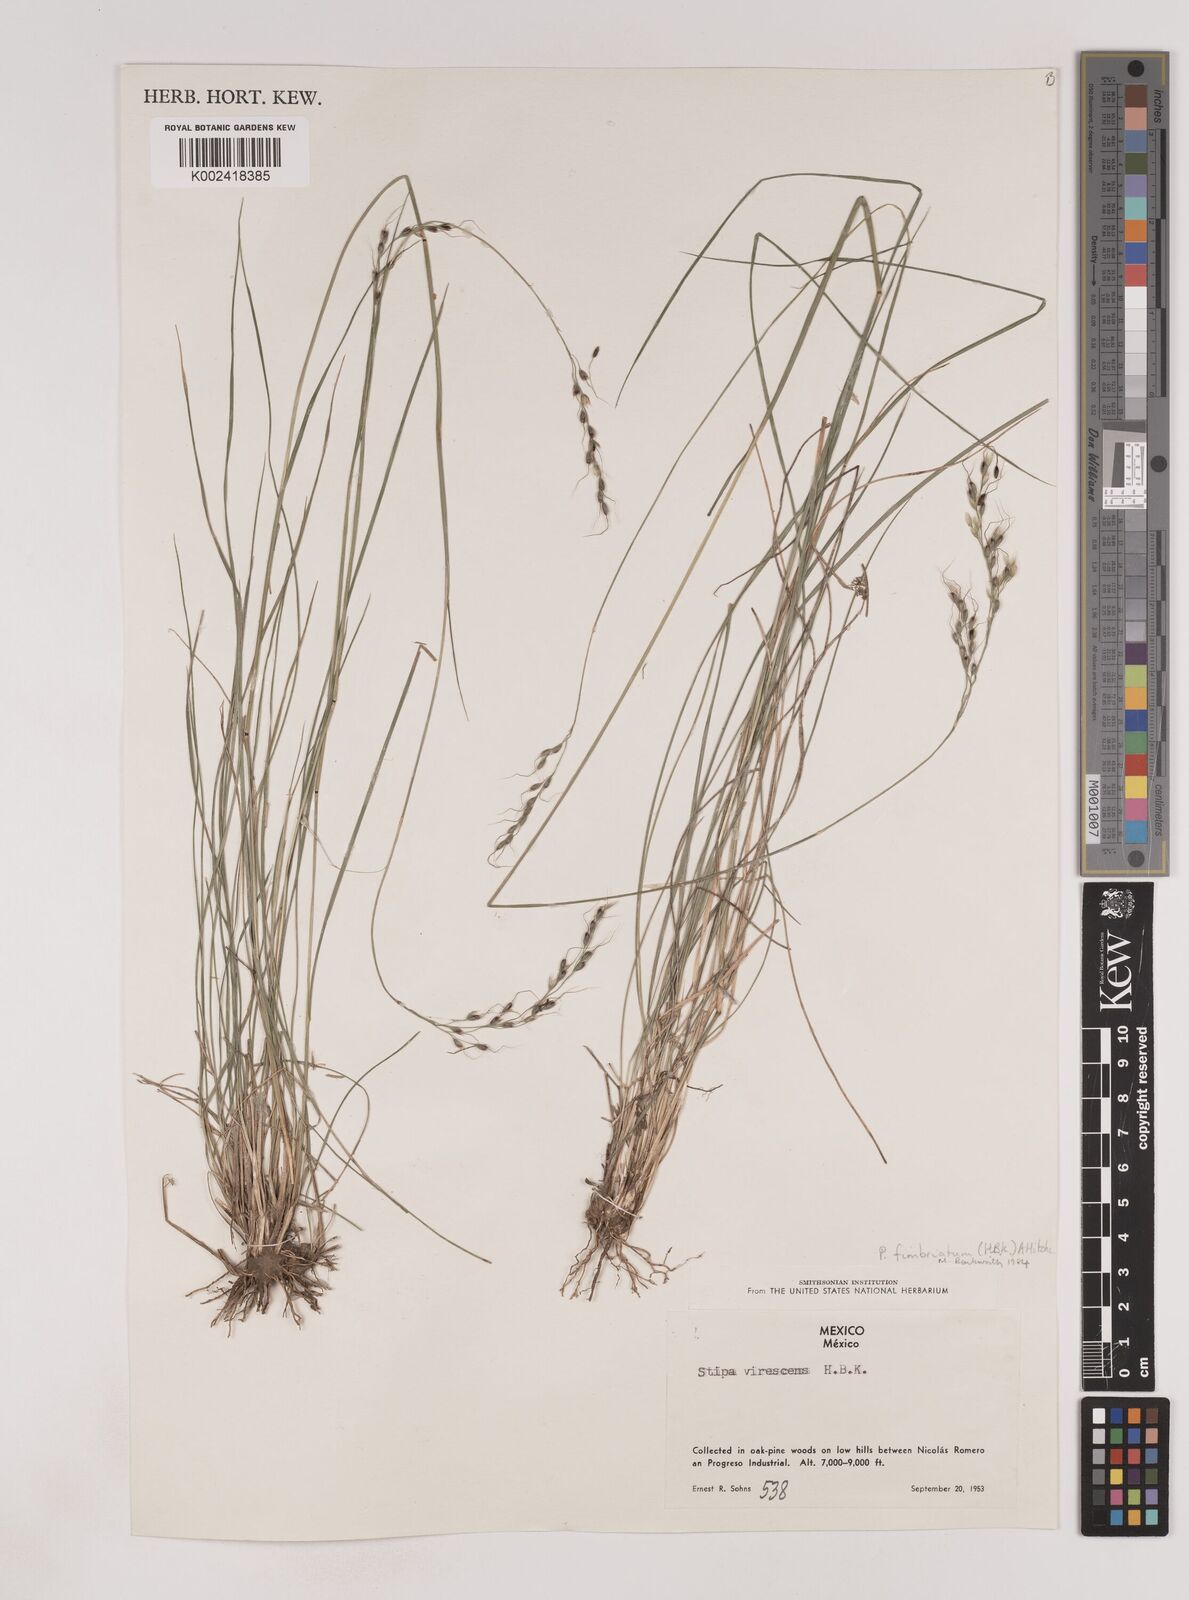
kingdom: Plantae
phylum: Tracheophyta
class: Liliopsida
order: Poales
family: Poaceae
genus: Piptochaetium
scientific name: Piptochaetium fimbriatum
